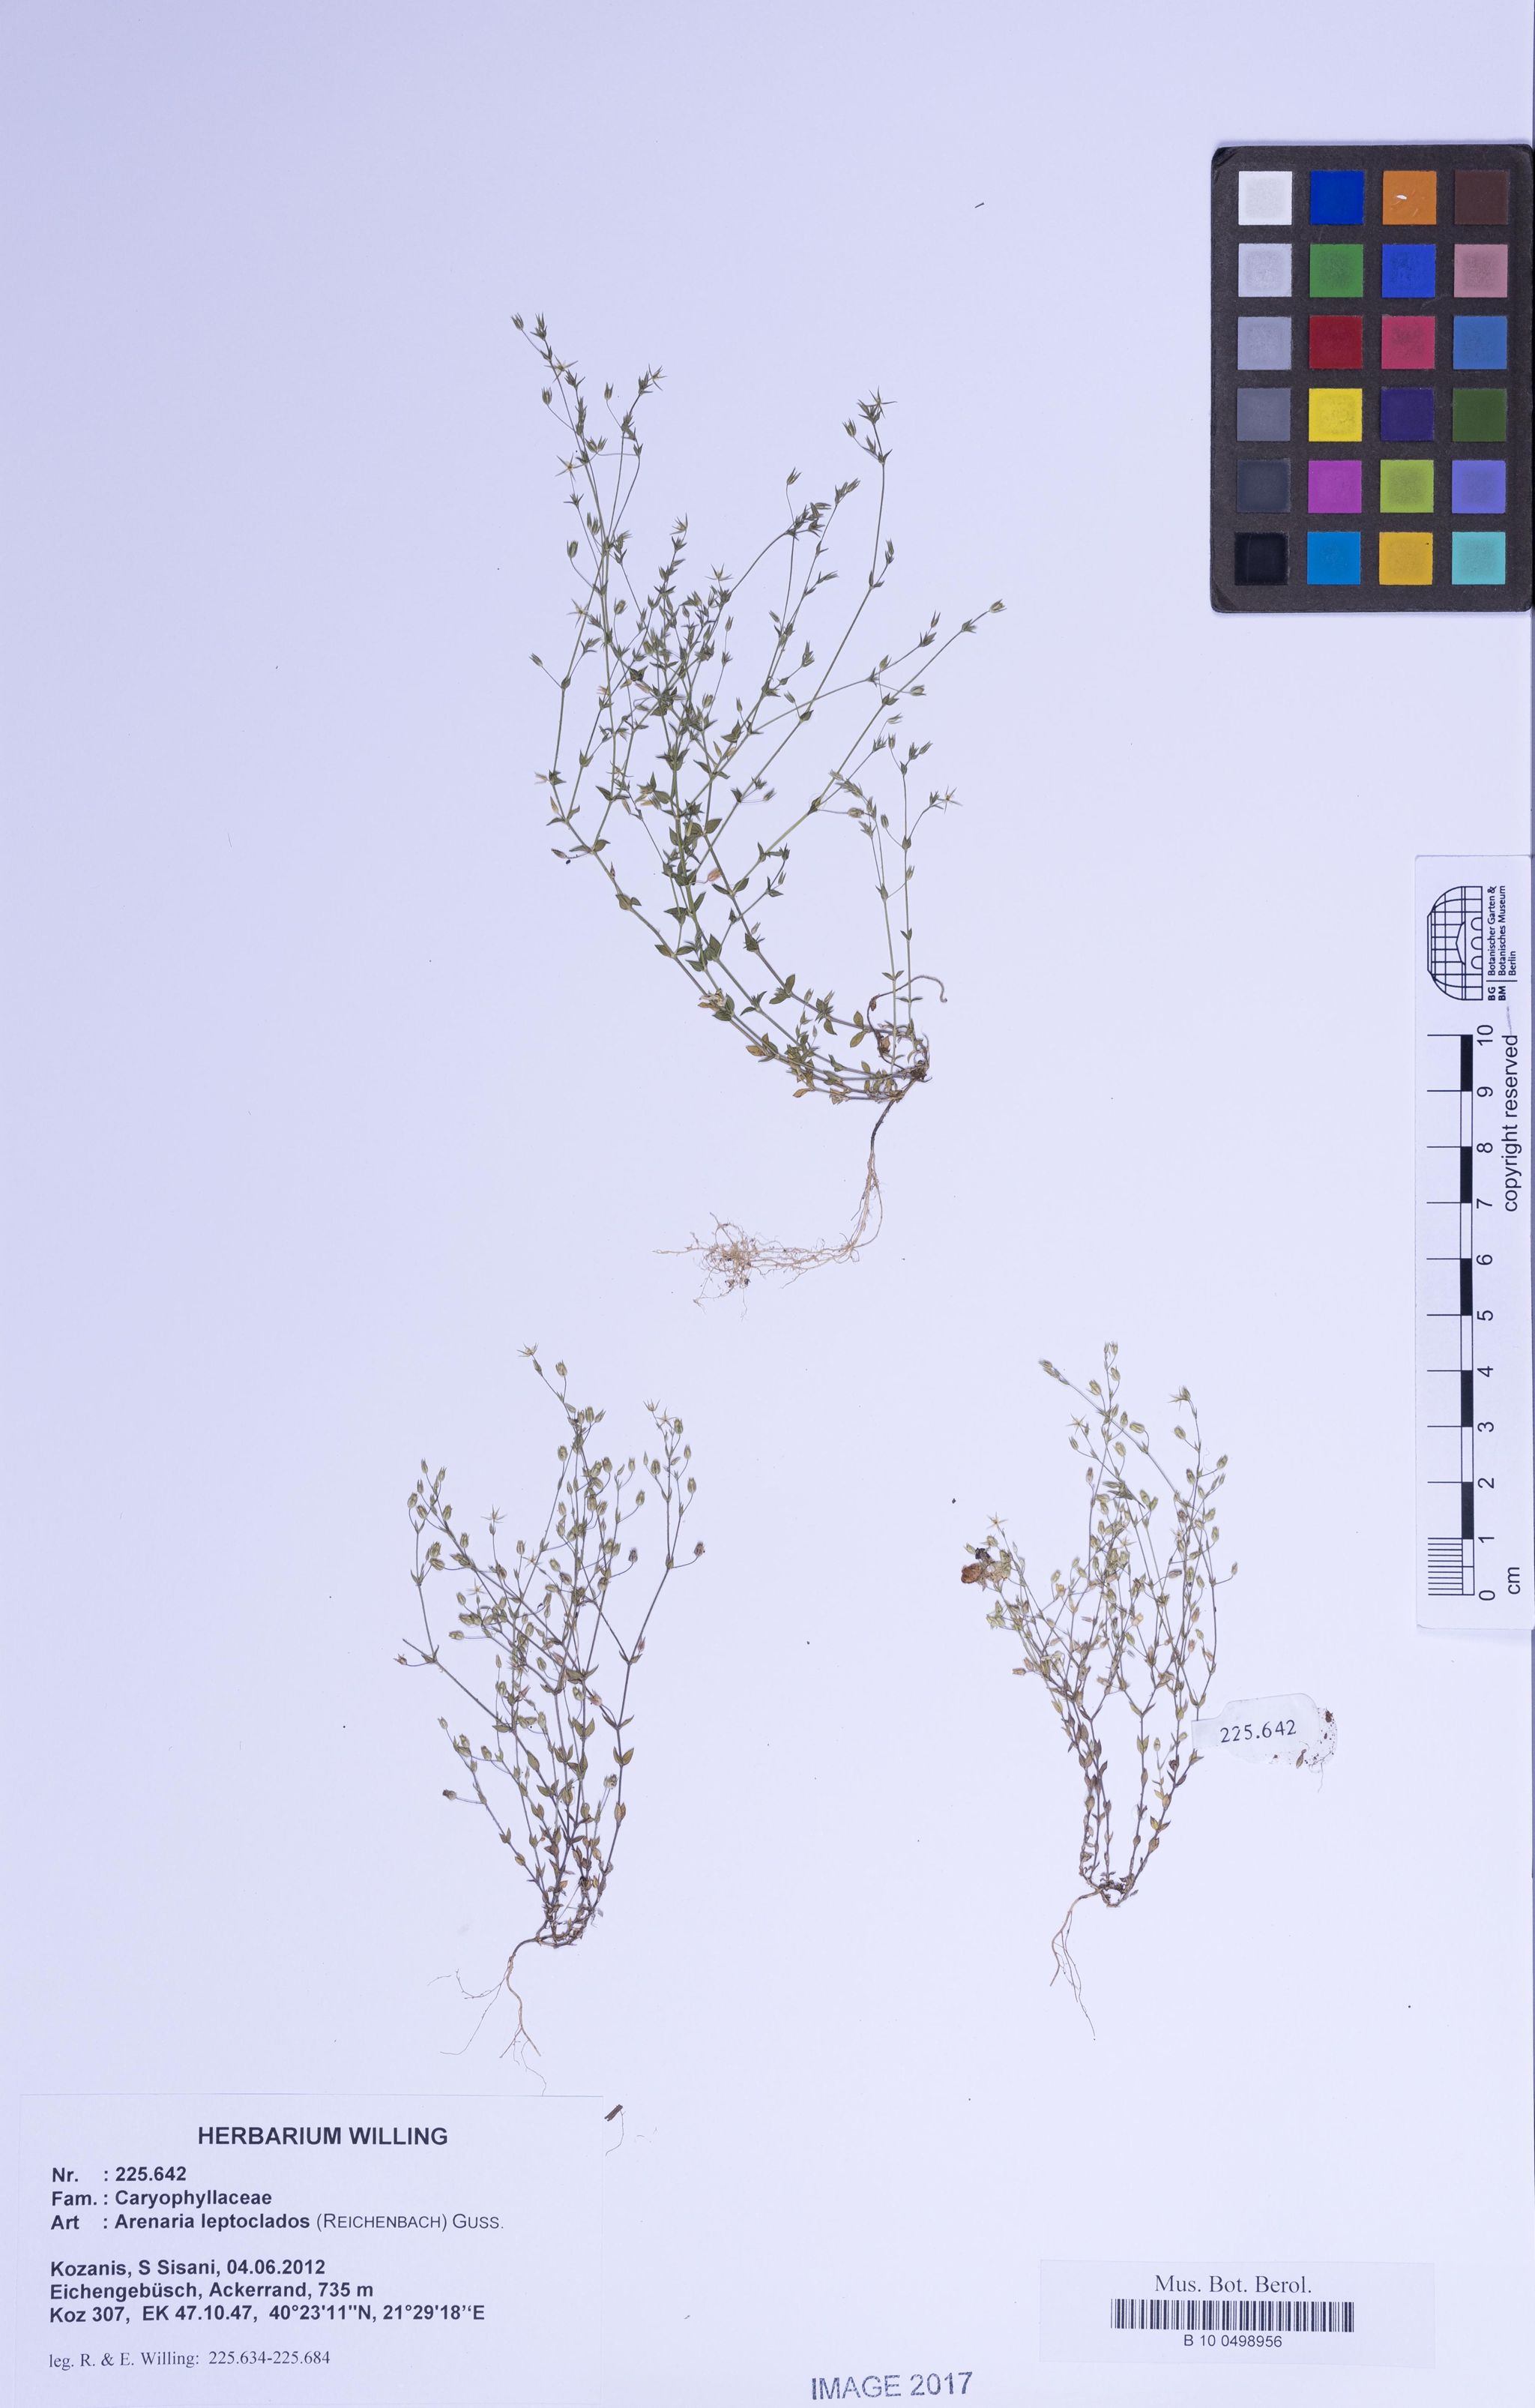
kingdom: Plantae
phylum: Tracheophyta
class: Magnoliopsida
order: Caryophyllales
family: Caryophyllaceae
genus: Arenaria
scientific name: Arenaria leptoclados
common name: Thyme-leaved sandwort
